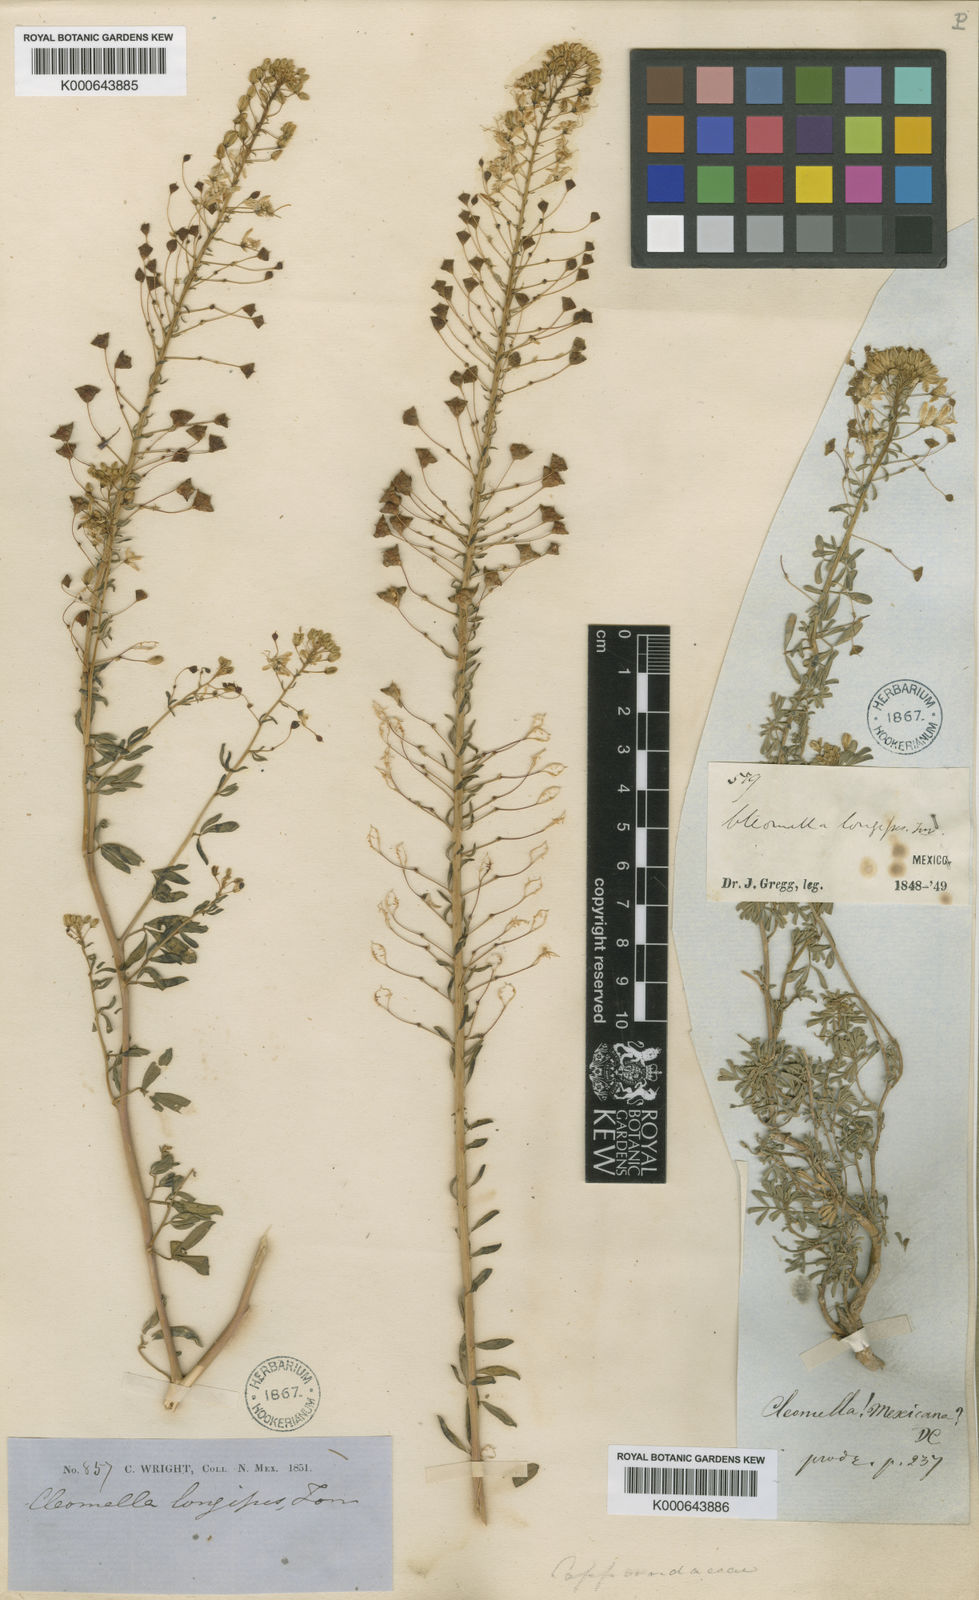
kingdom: Plantae
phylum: Tracheophyta
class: Magnoliopsida
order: Brassicales
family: Cleomaceae
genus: Cleomella
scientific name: Cleomella longipes
